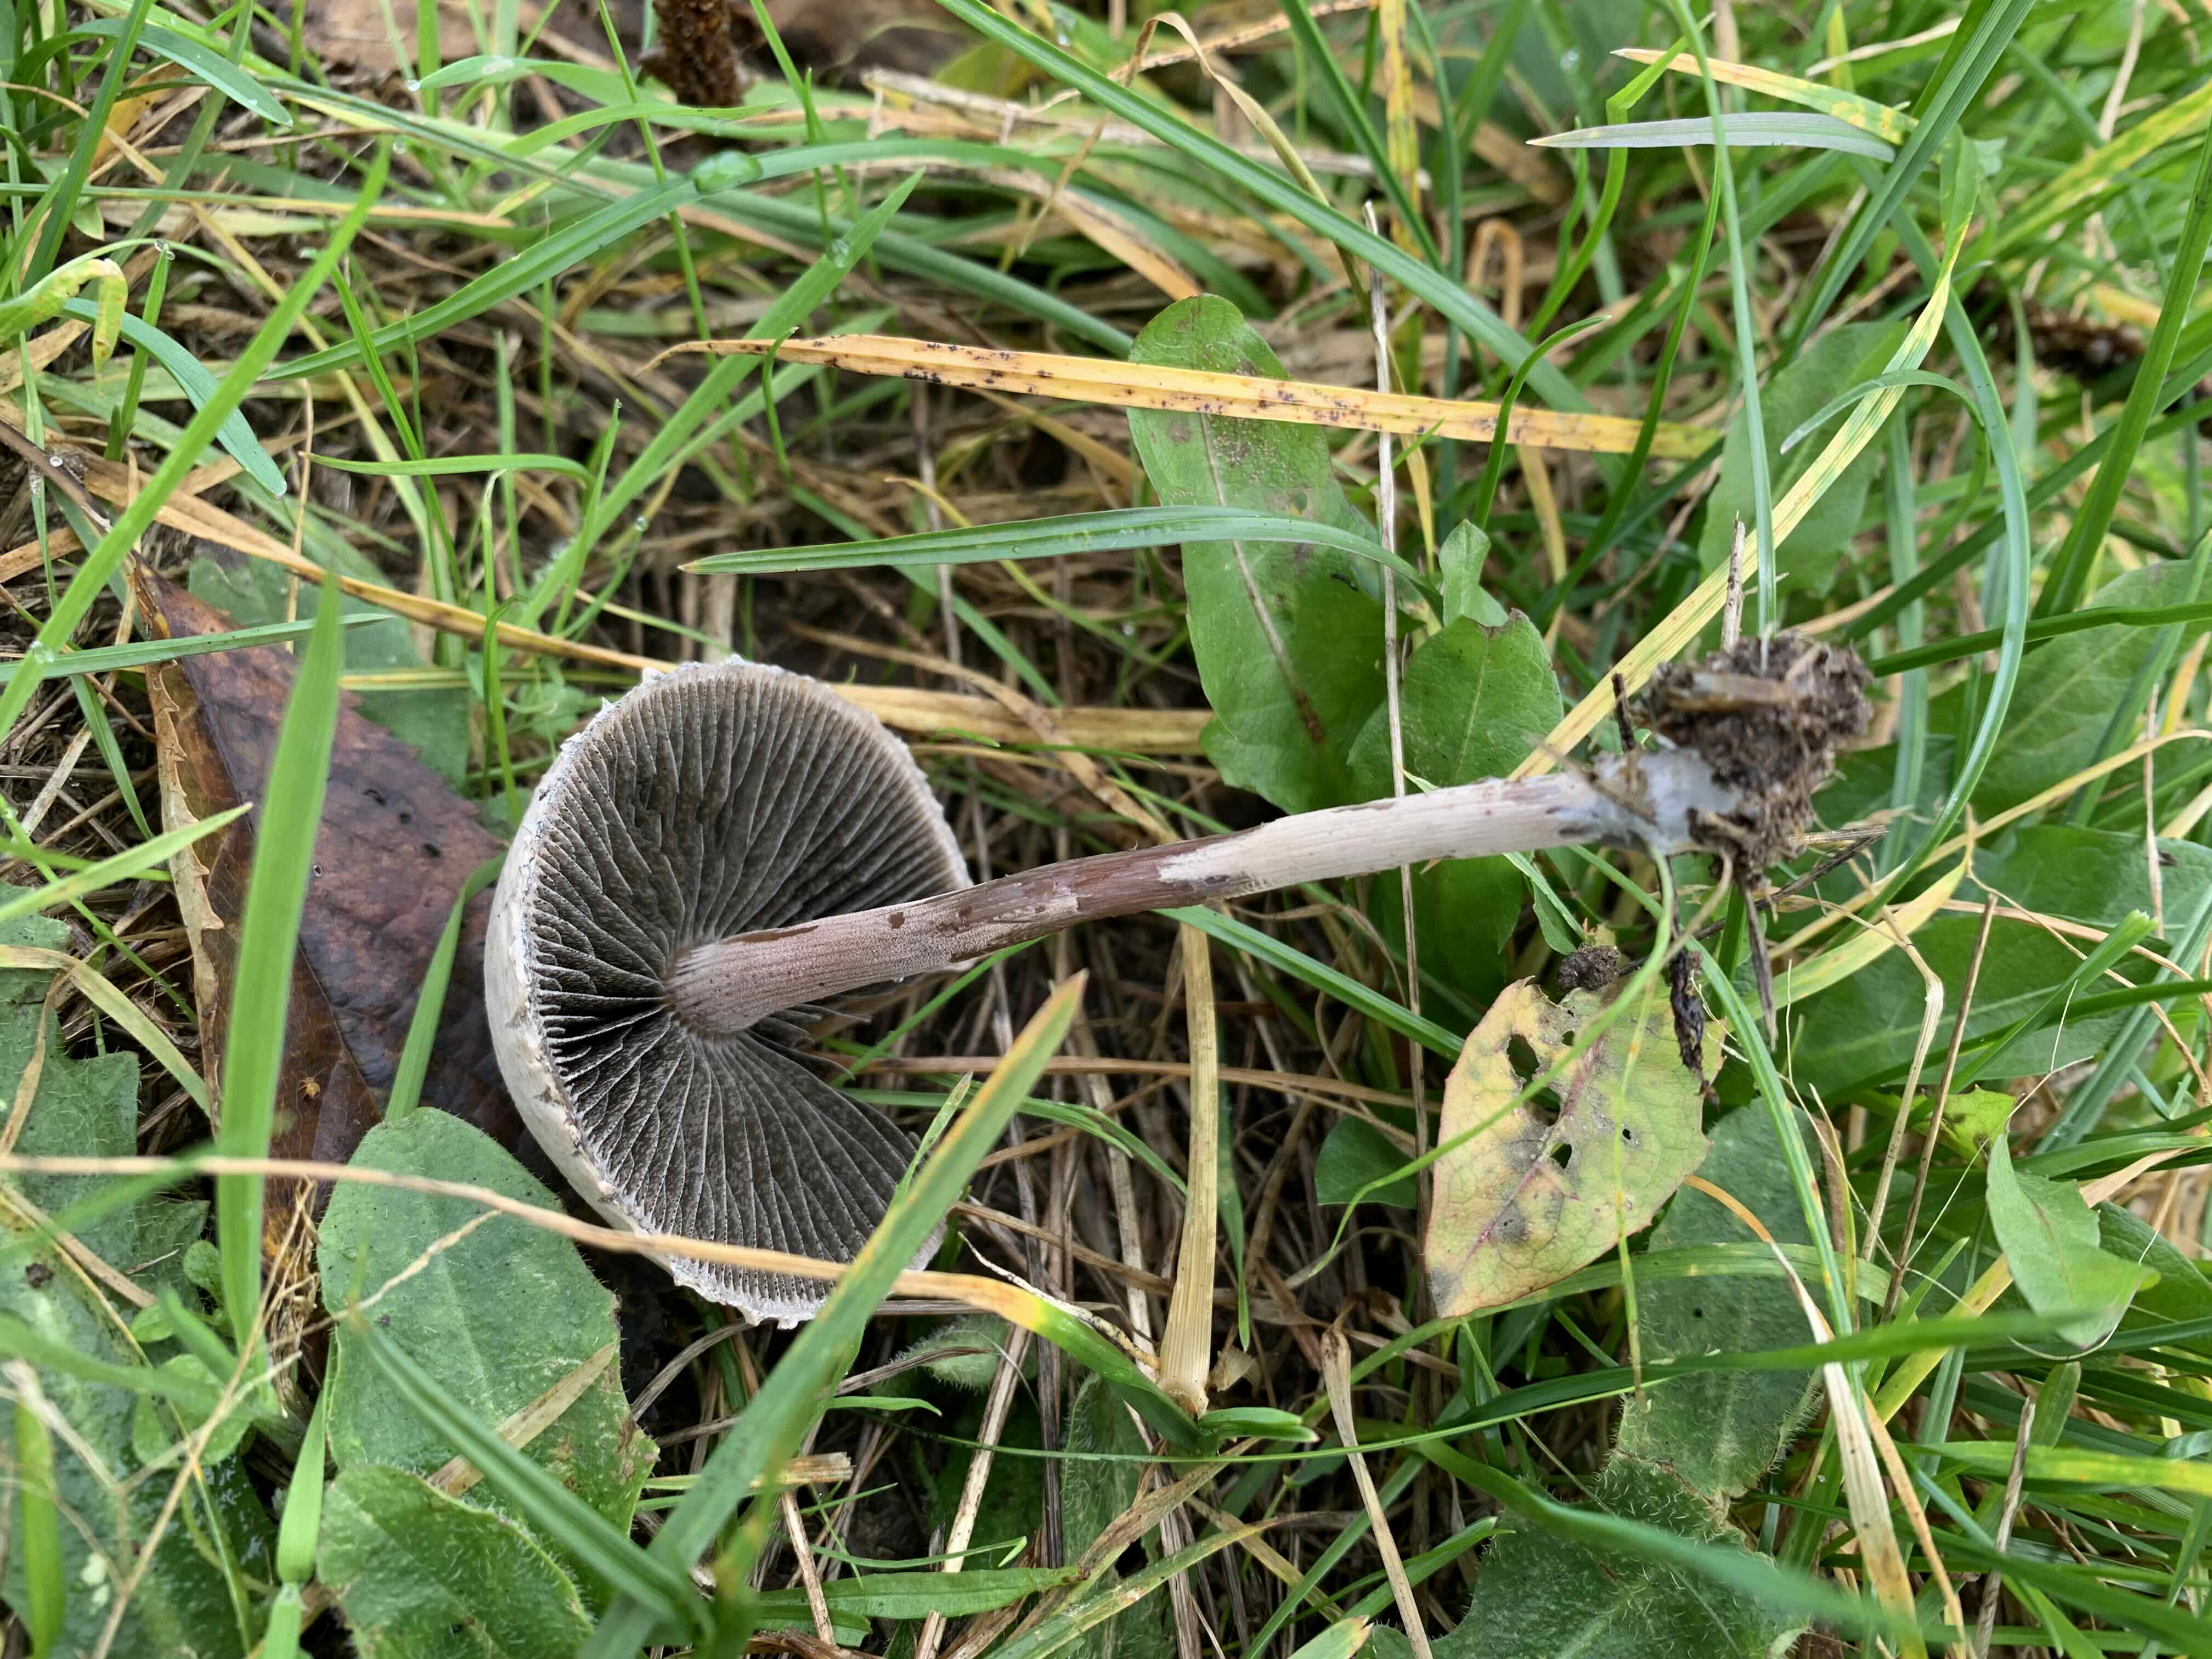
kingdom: Fungi
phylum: Basidiomycota
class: Agaricomycetes
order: Agaricales
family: Bolbitiaceae
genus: Panaeolus
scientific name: Panaeolus papilionaceus
